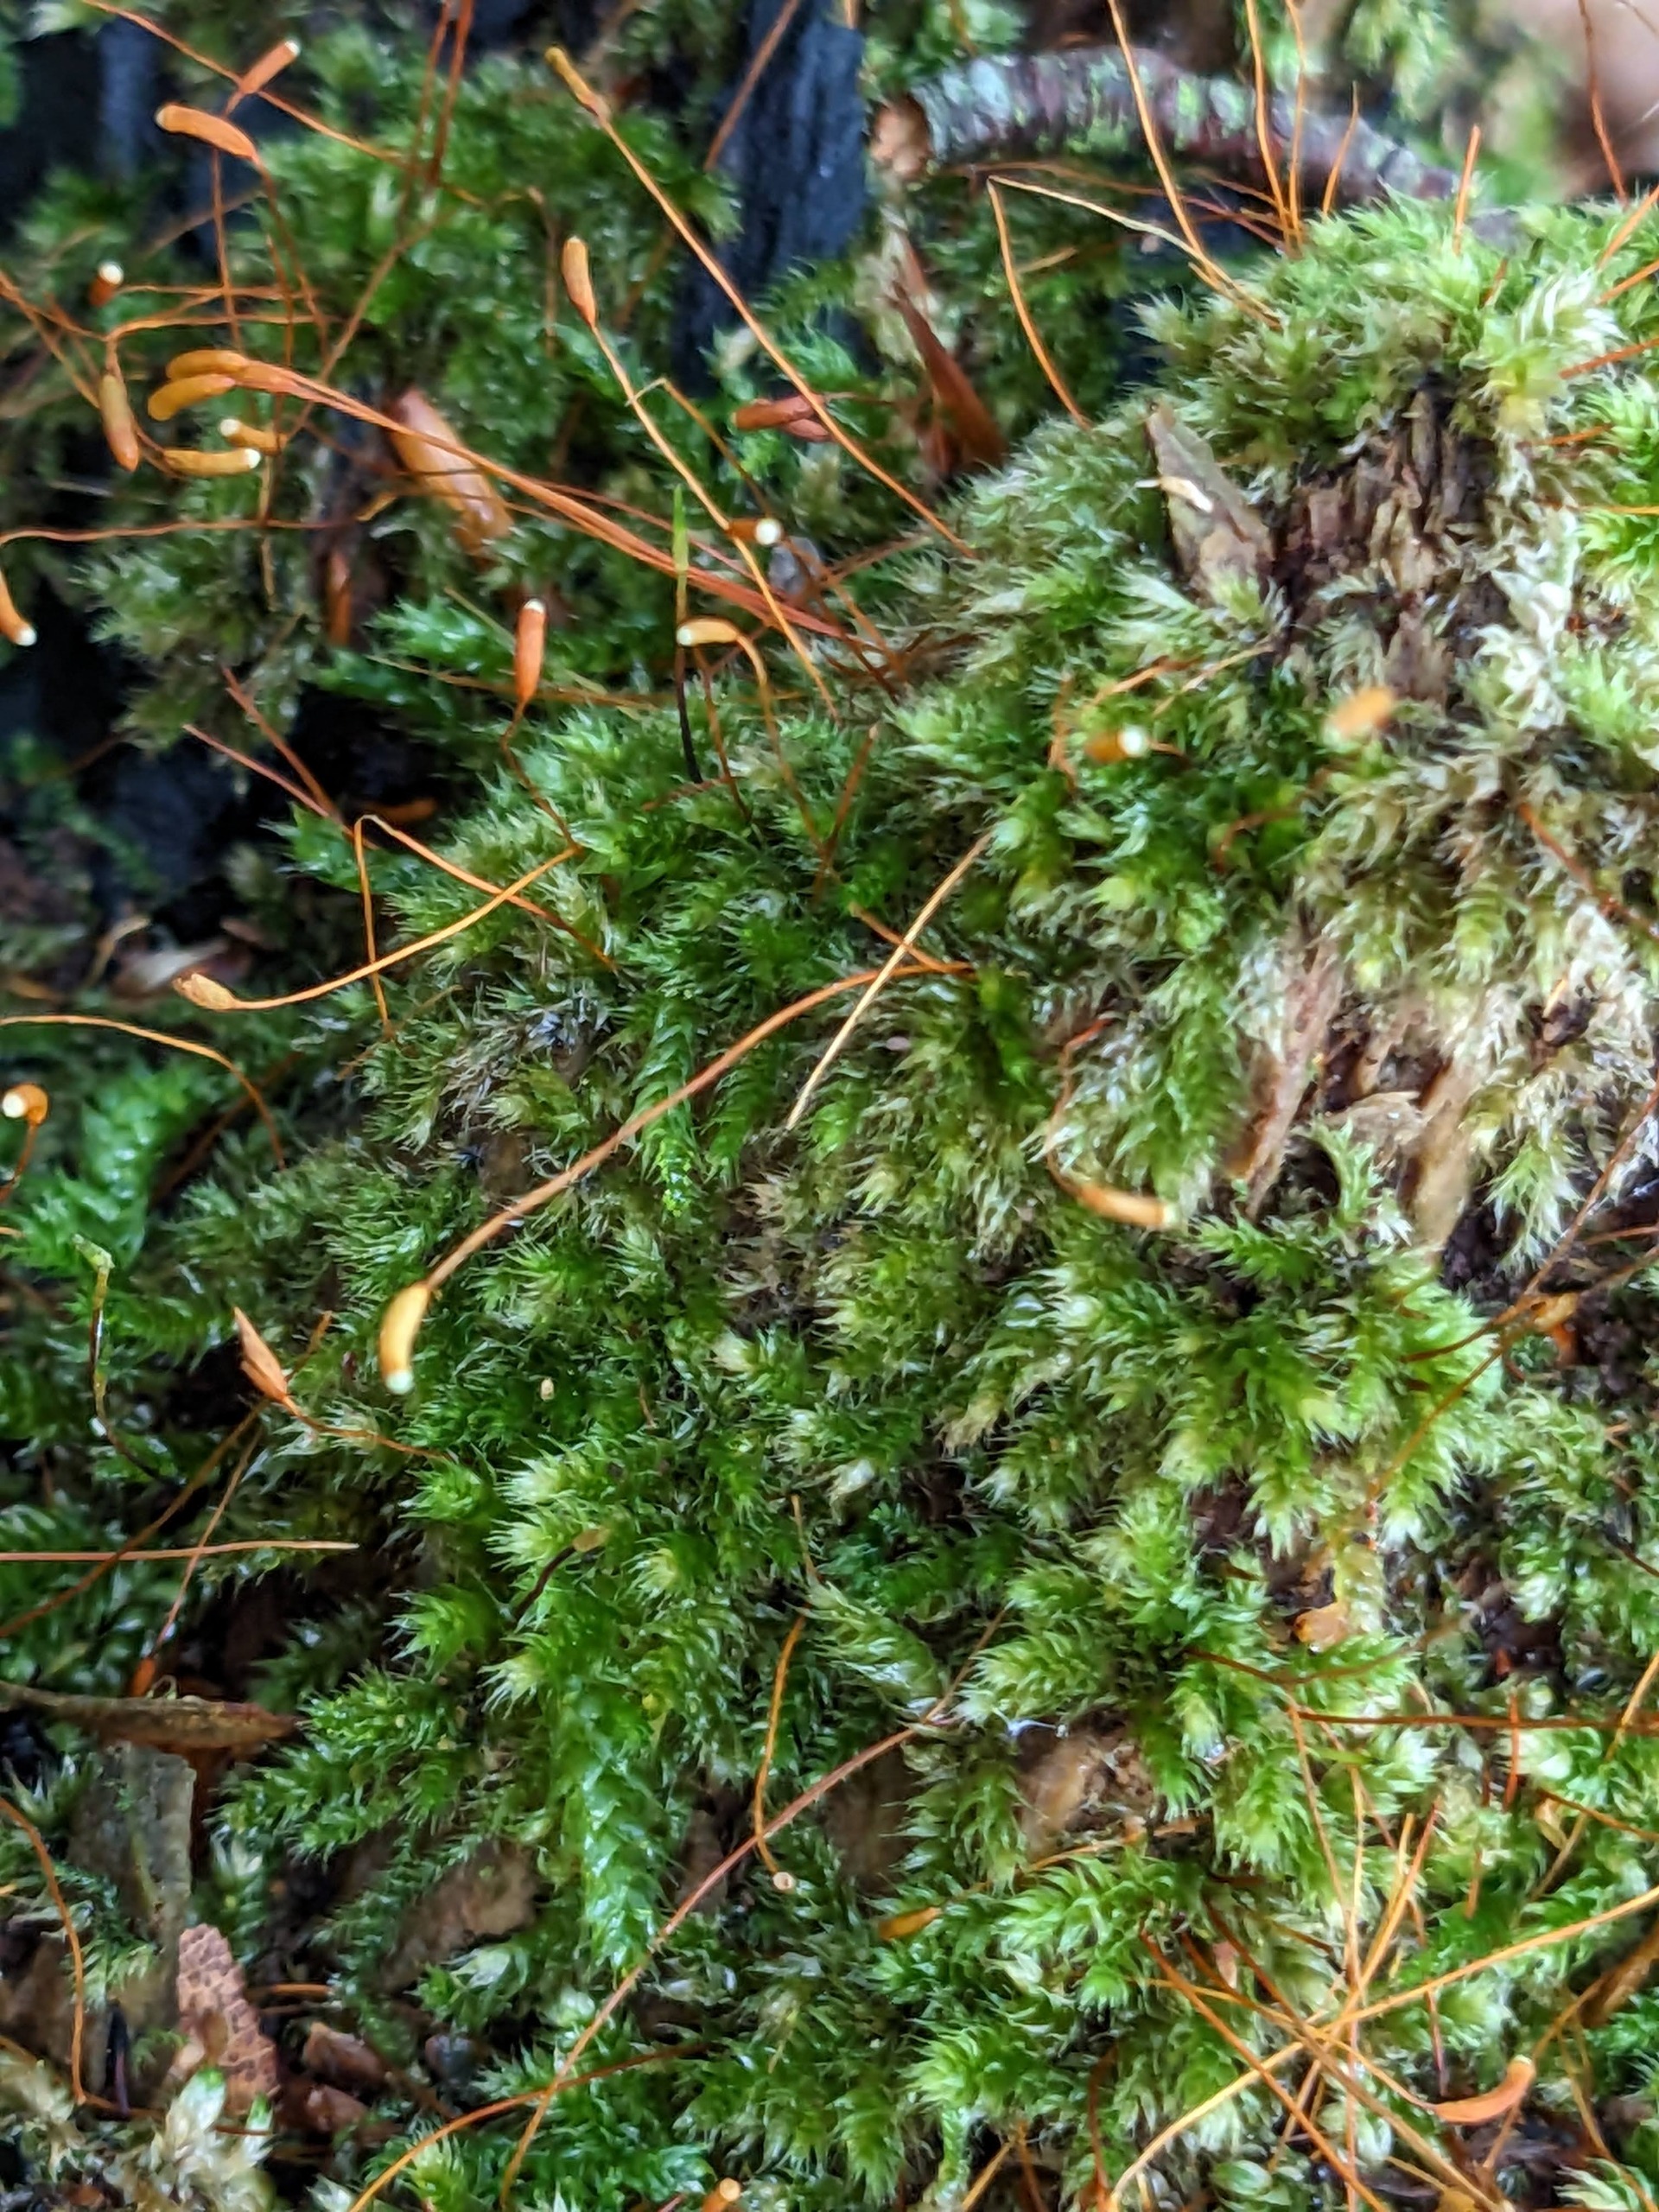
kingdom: Plantae
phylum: Bryophyta
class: Bryopsida
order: Hypnales
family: Plagiotheciaceae
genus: Herzogiella
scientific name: Herzogiella seligeri
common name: Stub-pølsekapsel
